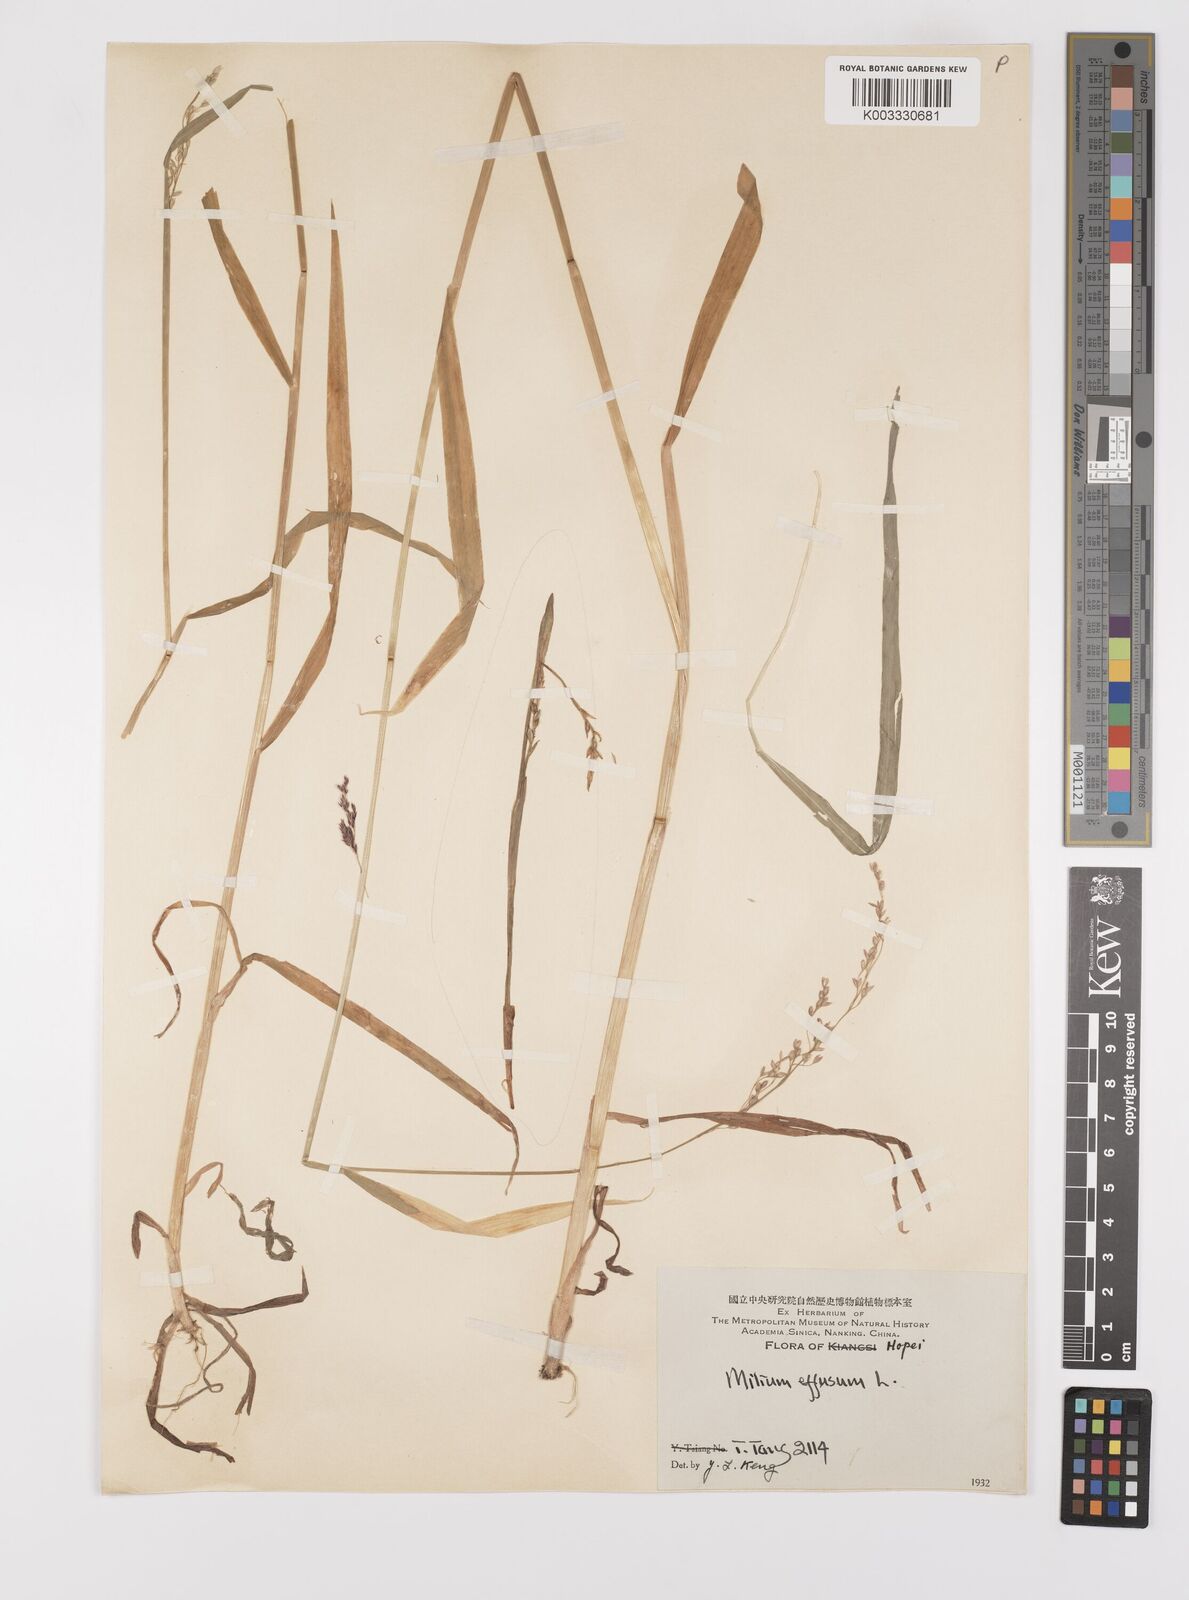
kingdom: Plantae
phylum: Tracheophyta
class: Liliopsida
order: Poales
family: Poaceae
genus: Milium
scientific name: Milium effusum
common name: Wood millet
